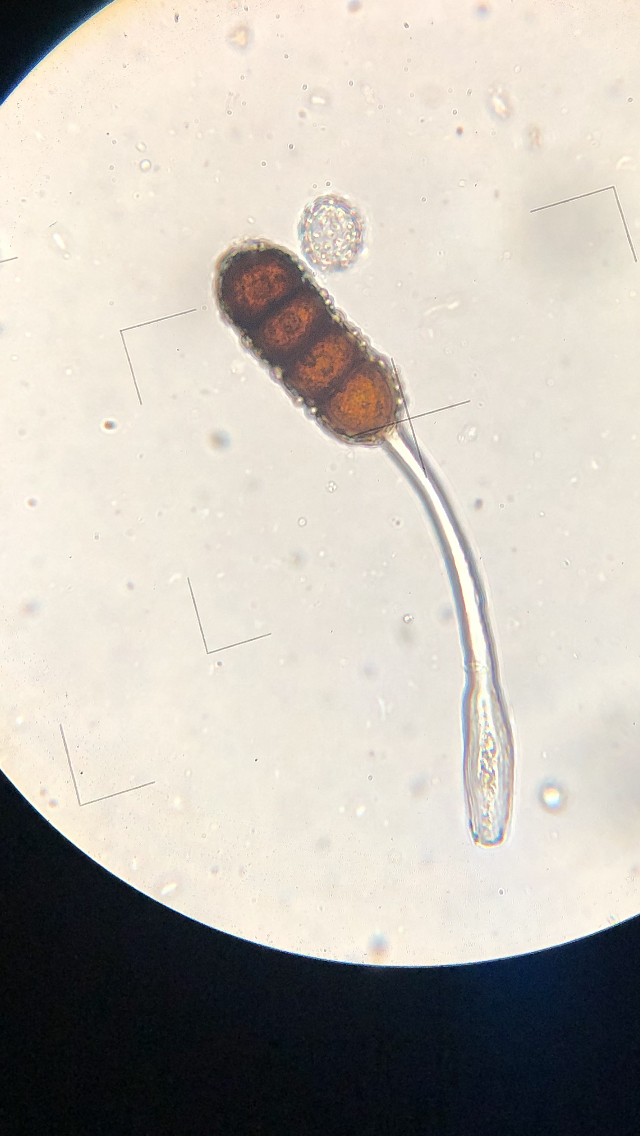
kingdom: Fungi
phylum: Basidiomycota
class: Pucciniomycetes
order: Pucciniales
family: Phragmidiaceae
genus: Phragmidium
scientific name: Phragmidium violaceum
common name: violet flercellerust
